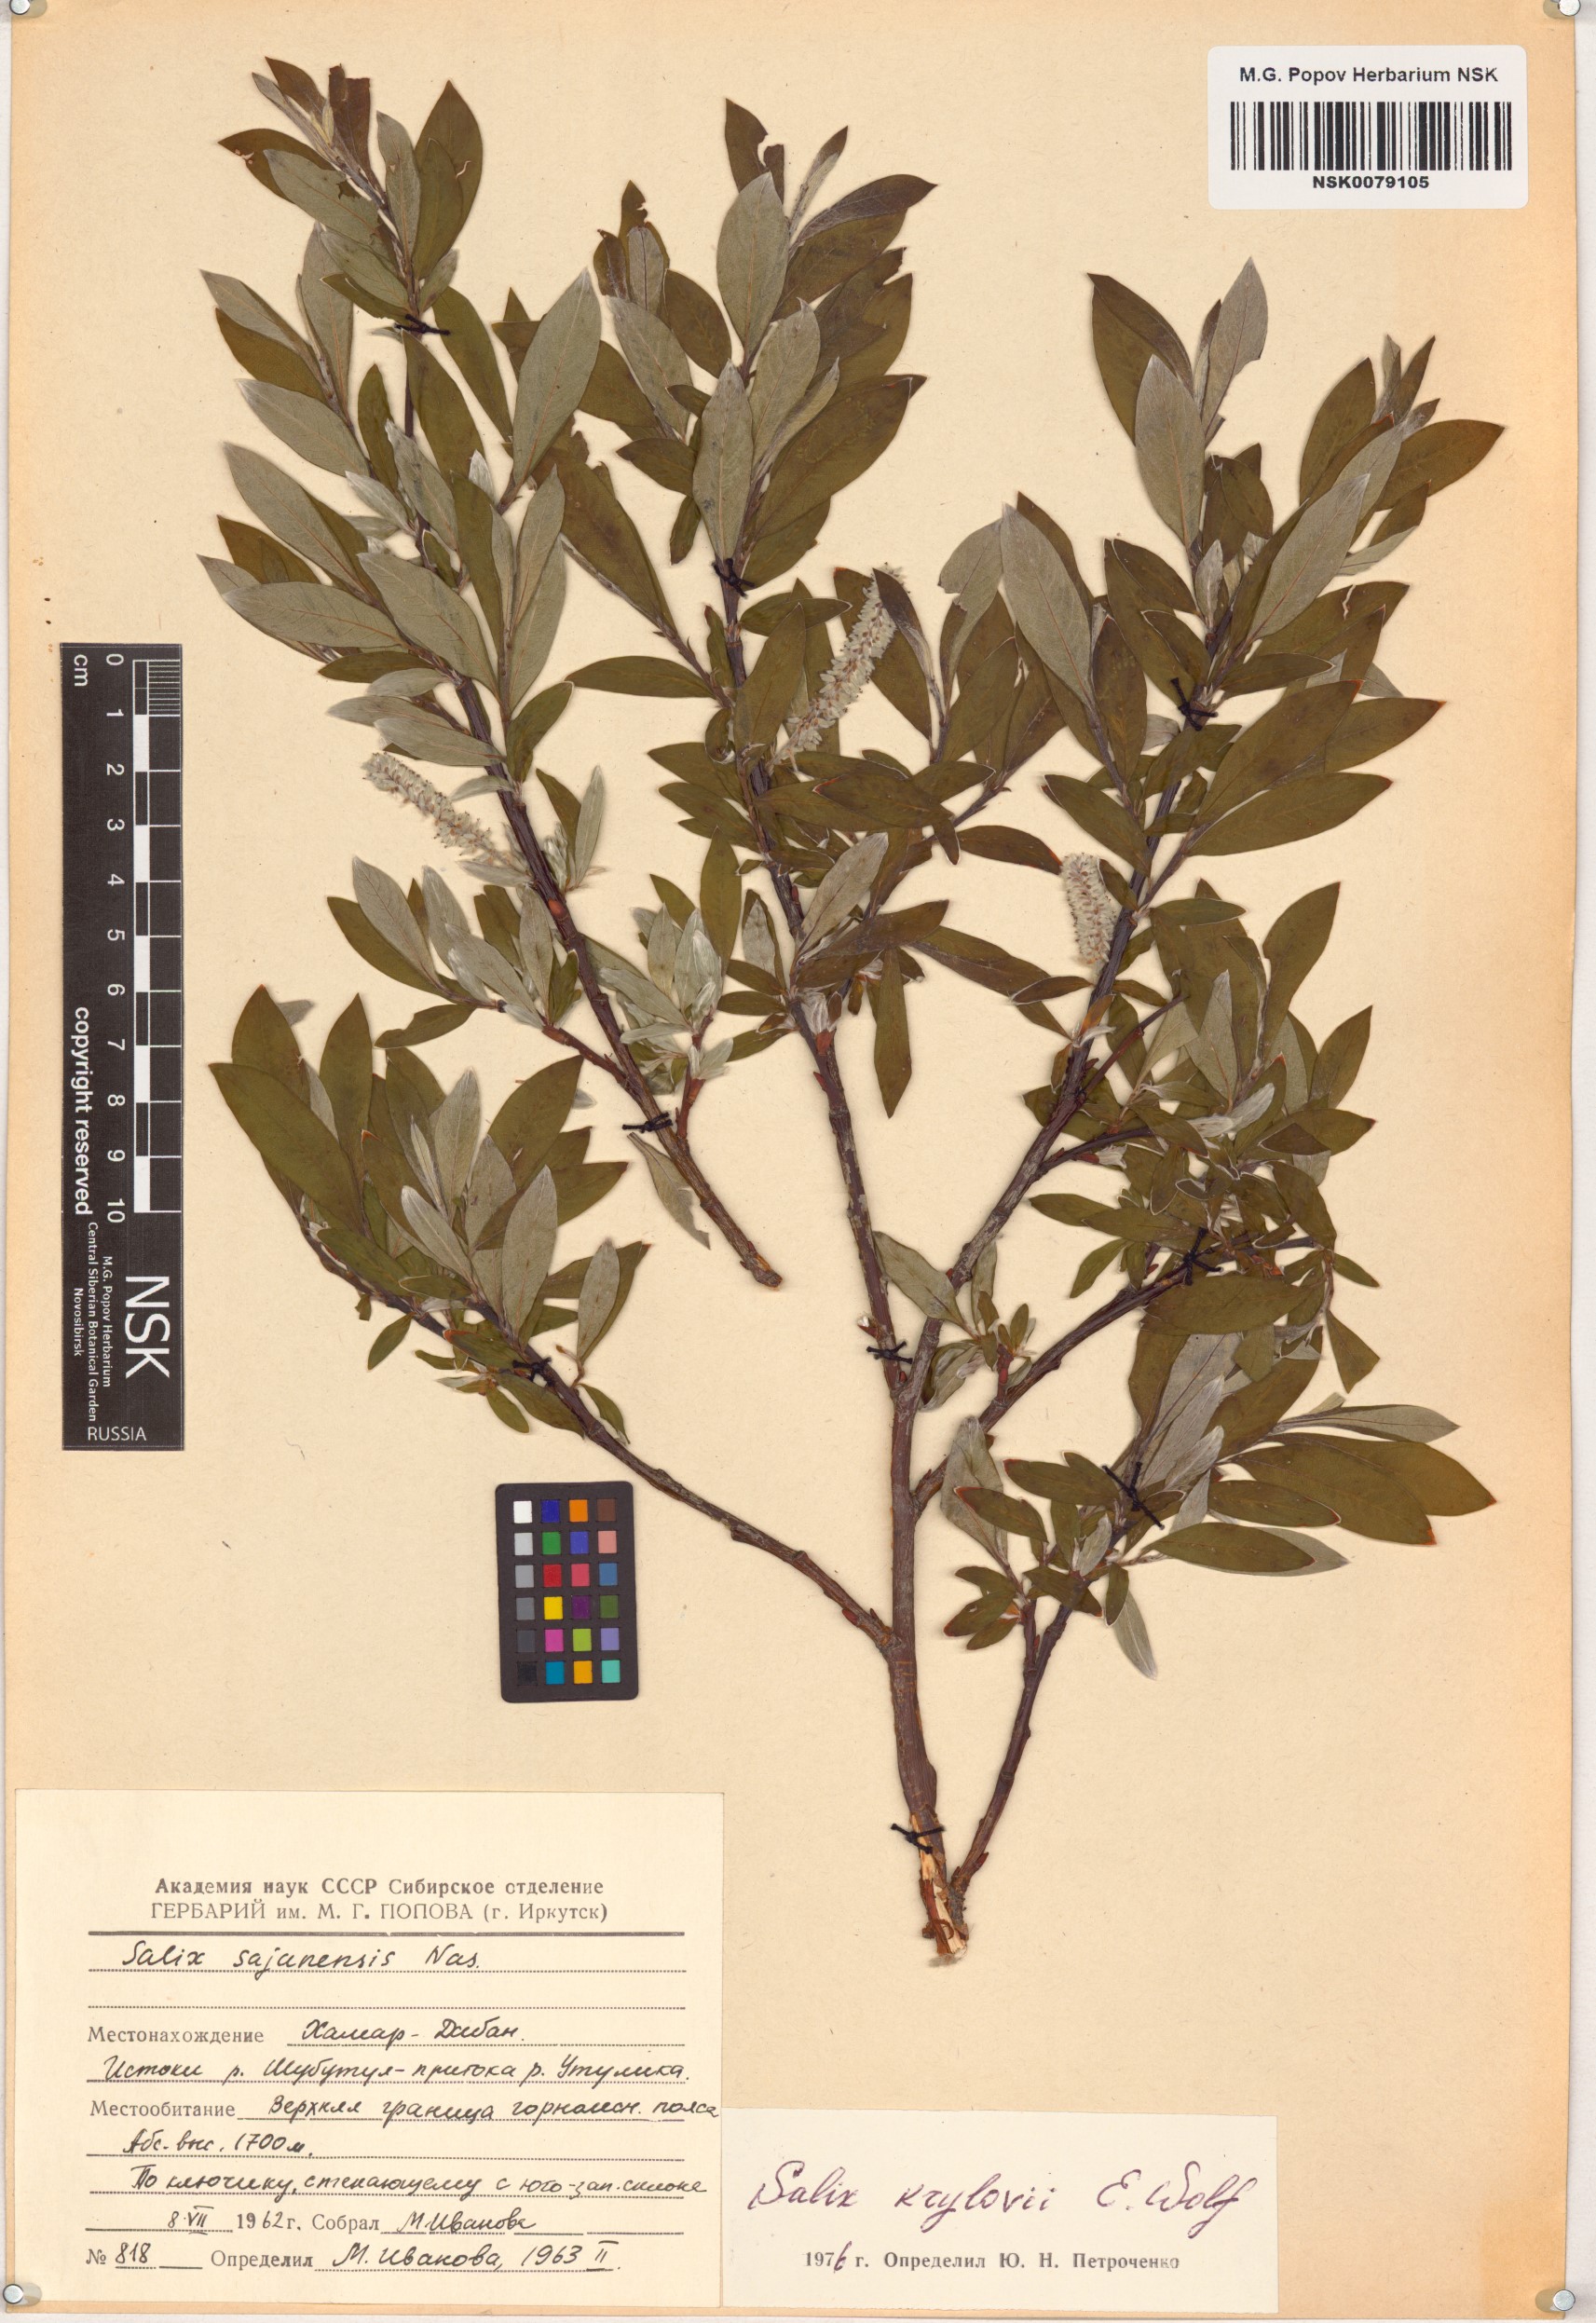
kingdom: Plantae
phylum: Tracheophyta
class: Magnoliopsida
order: Malpighiales
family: Salicaceae
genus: Salix
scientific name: Salix krylovii
